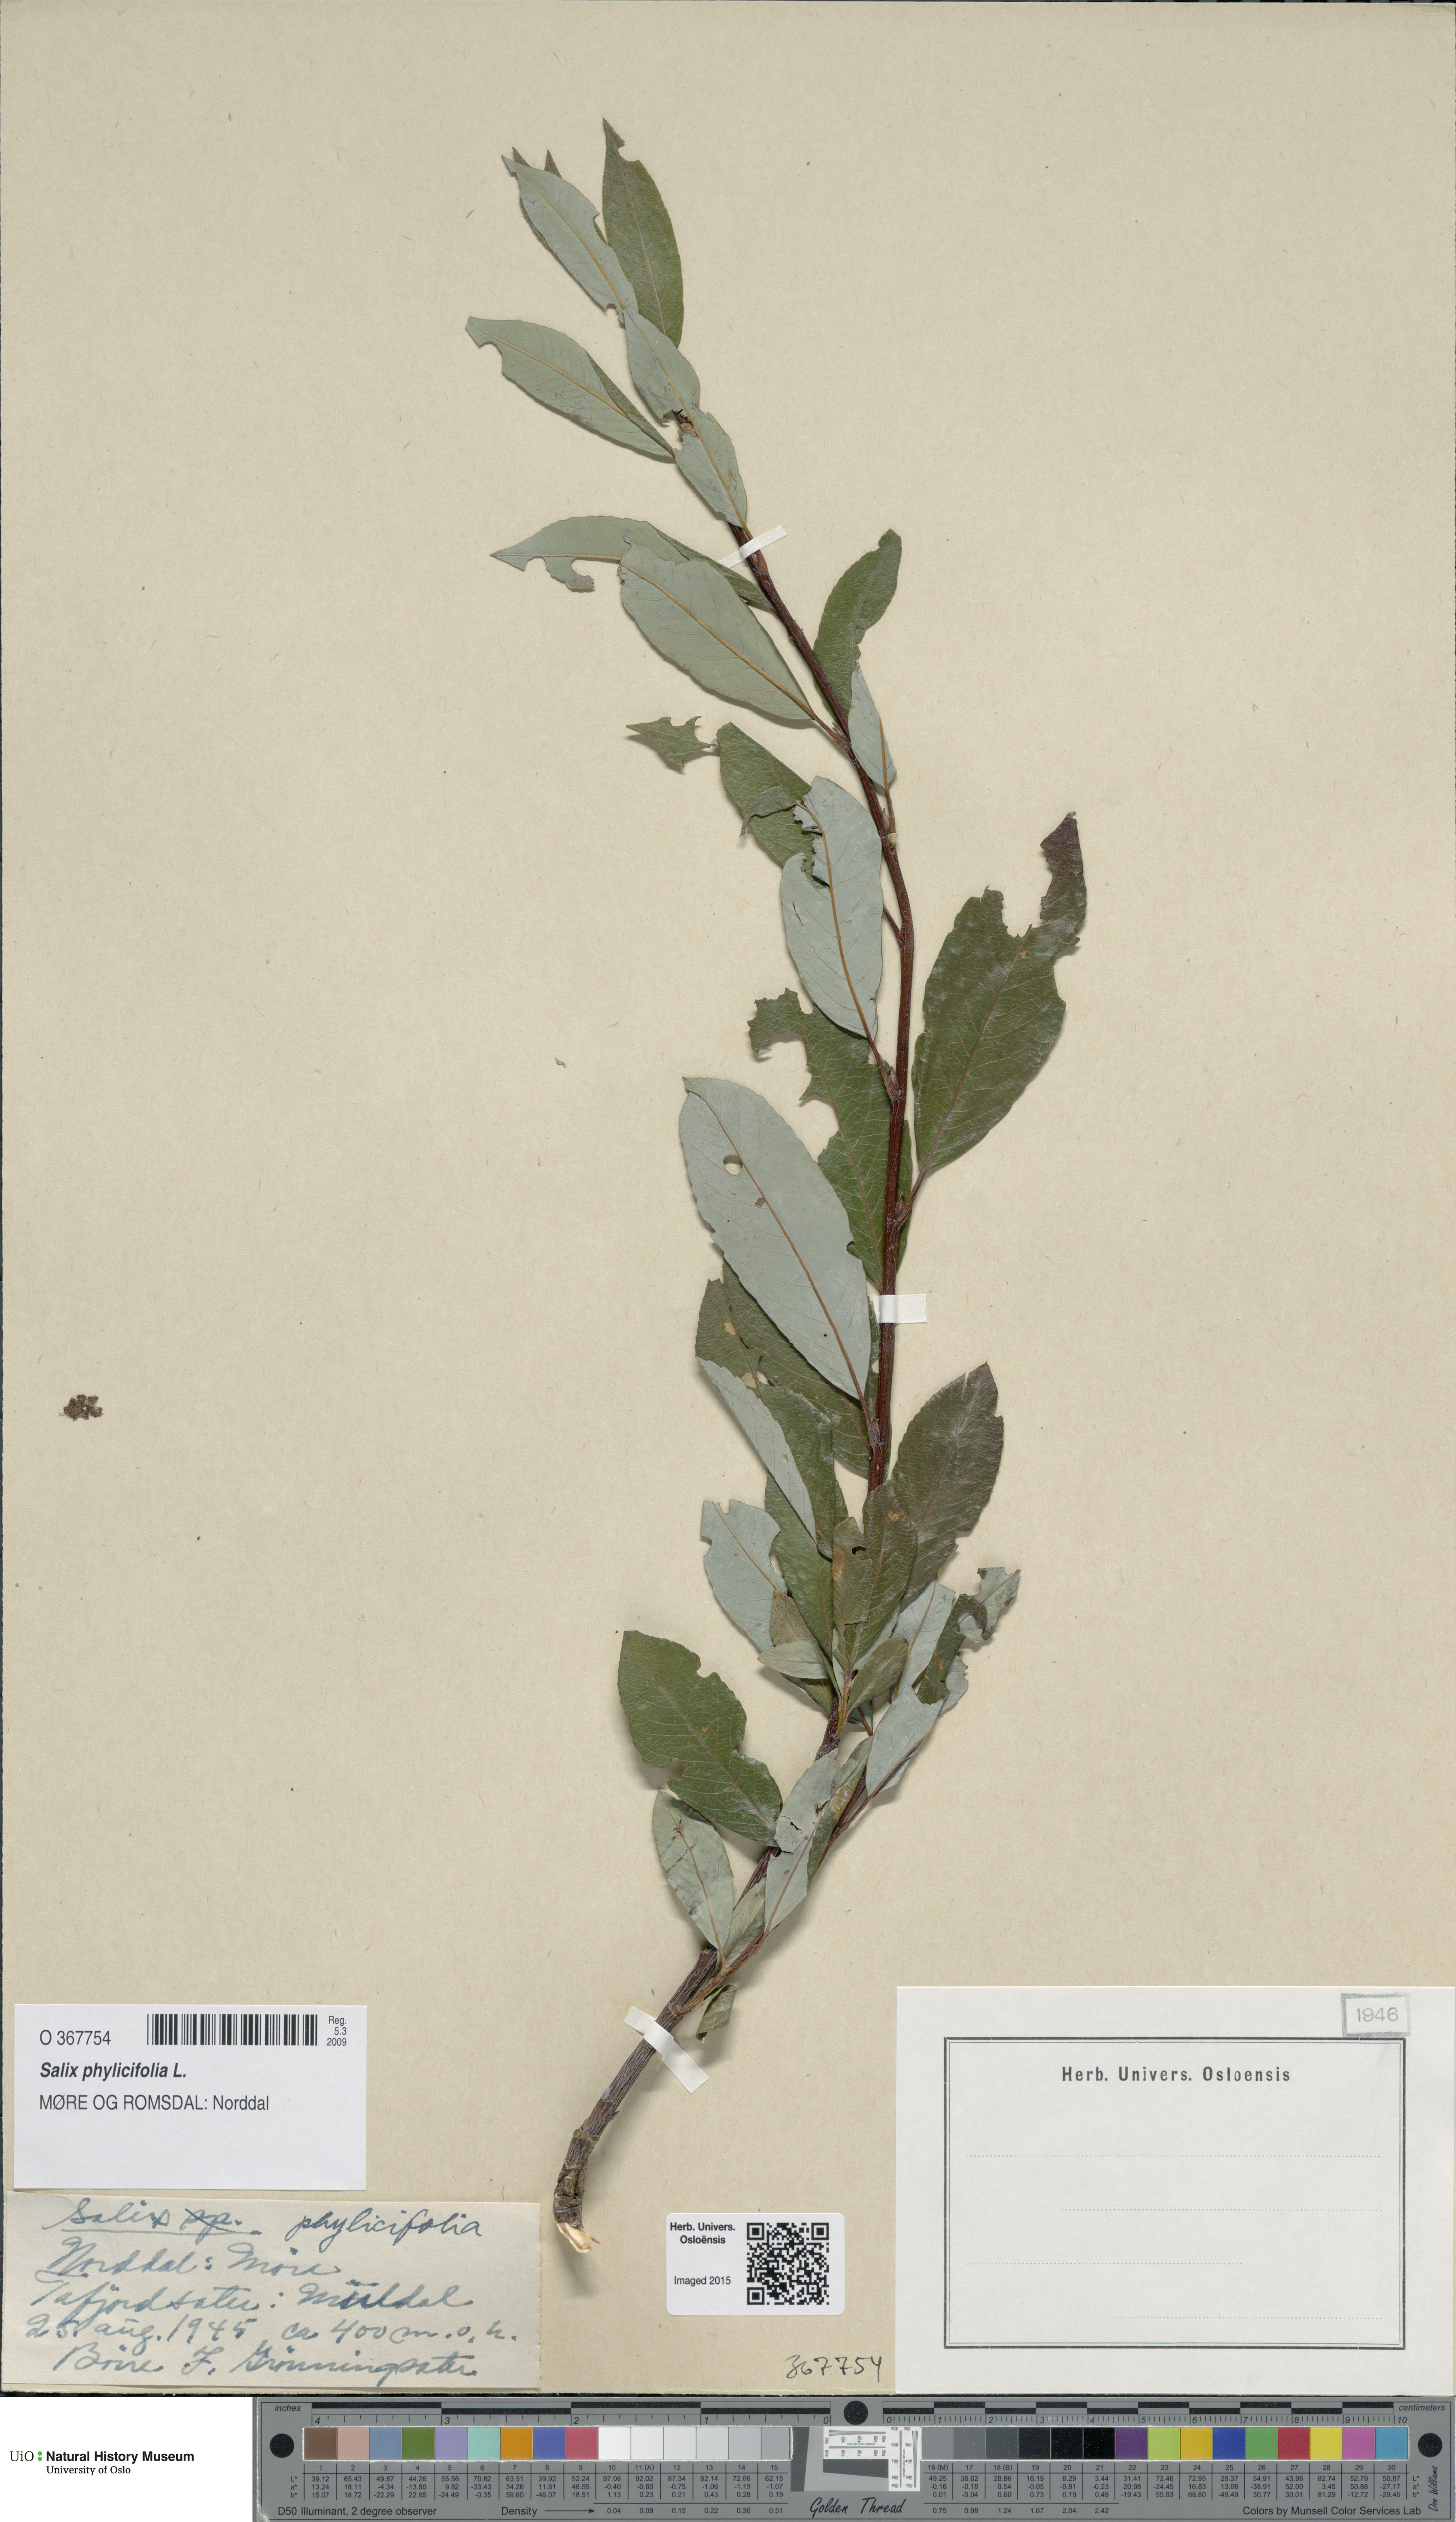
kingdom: Plantae
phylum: Tracheophyta
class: Magnoliopsida
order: Malpighiales
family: Salicaceae
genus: Salix
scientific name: Salix phylicifolia
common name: Tea-leaved willow
